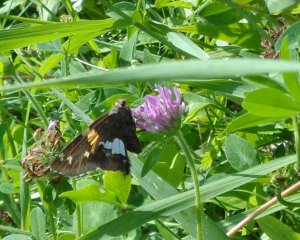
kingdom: Animalia
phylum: Arthropoda
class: Insecta
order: Lepidoptera
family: Hesperiidae
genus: Epargyreus
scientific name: Epargyreus clarus
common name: Silver-spotted Skipper
